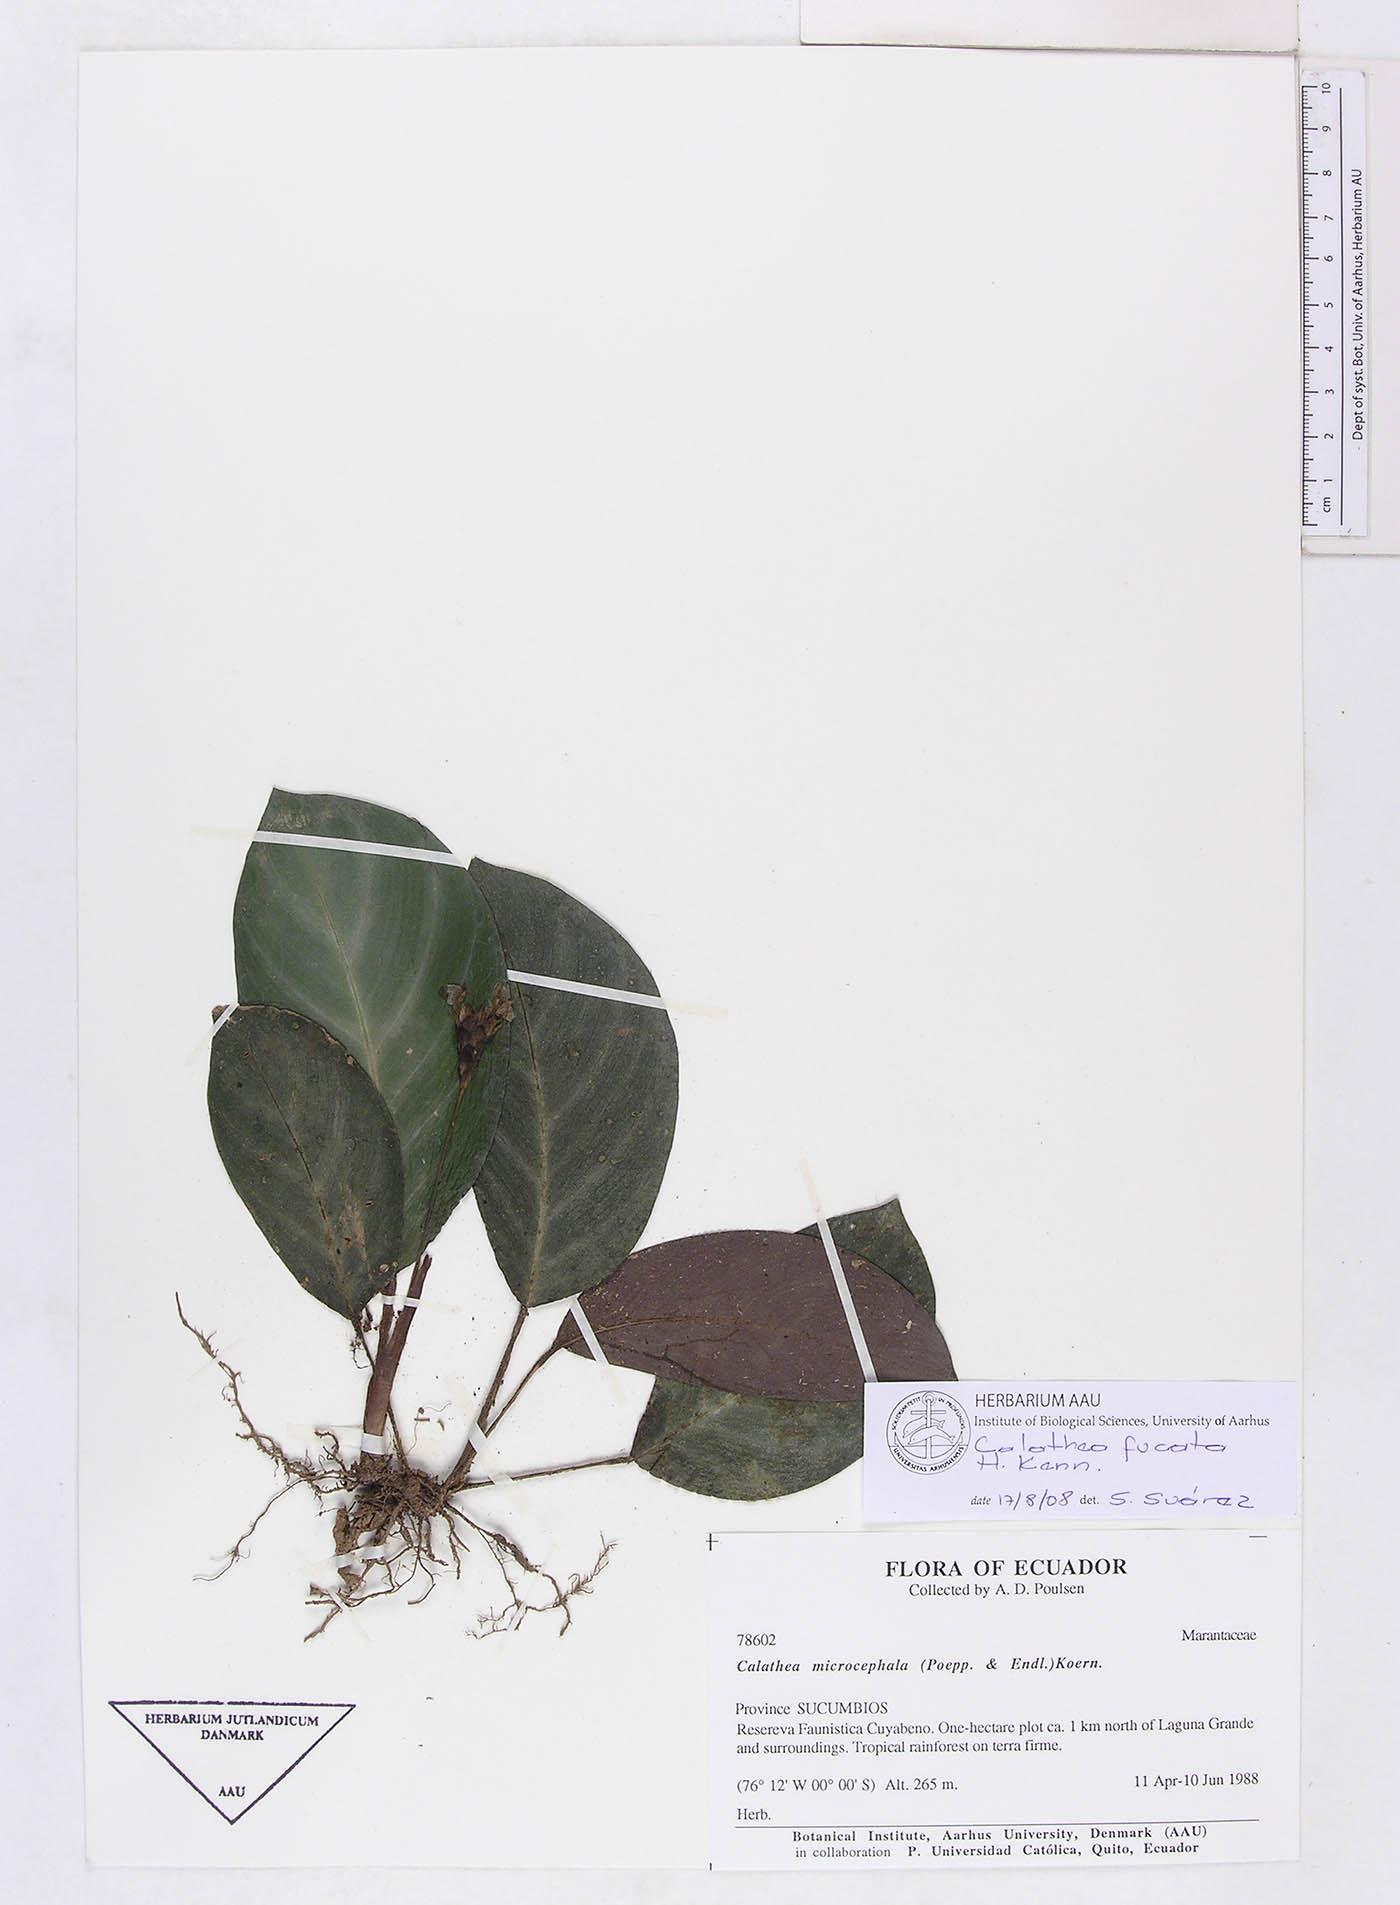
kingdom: Plantae
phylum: Tracheophyta
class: Liliopsida
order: Zingiberales
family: Marantaceae
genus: Goeppertia
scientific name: Goeppertia fucata
